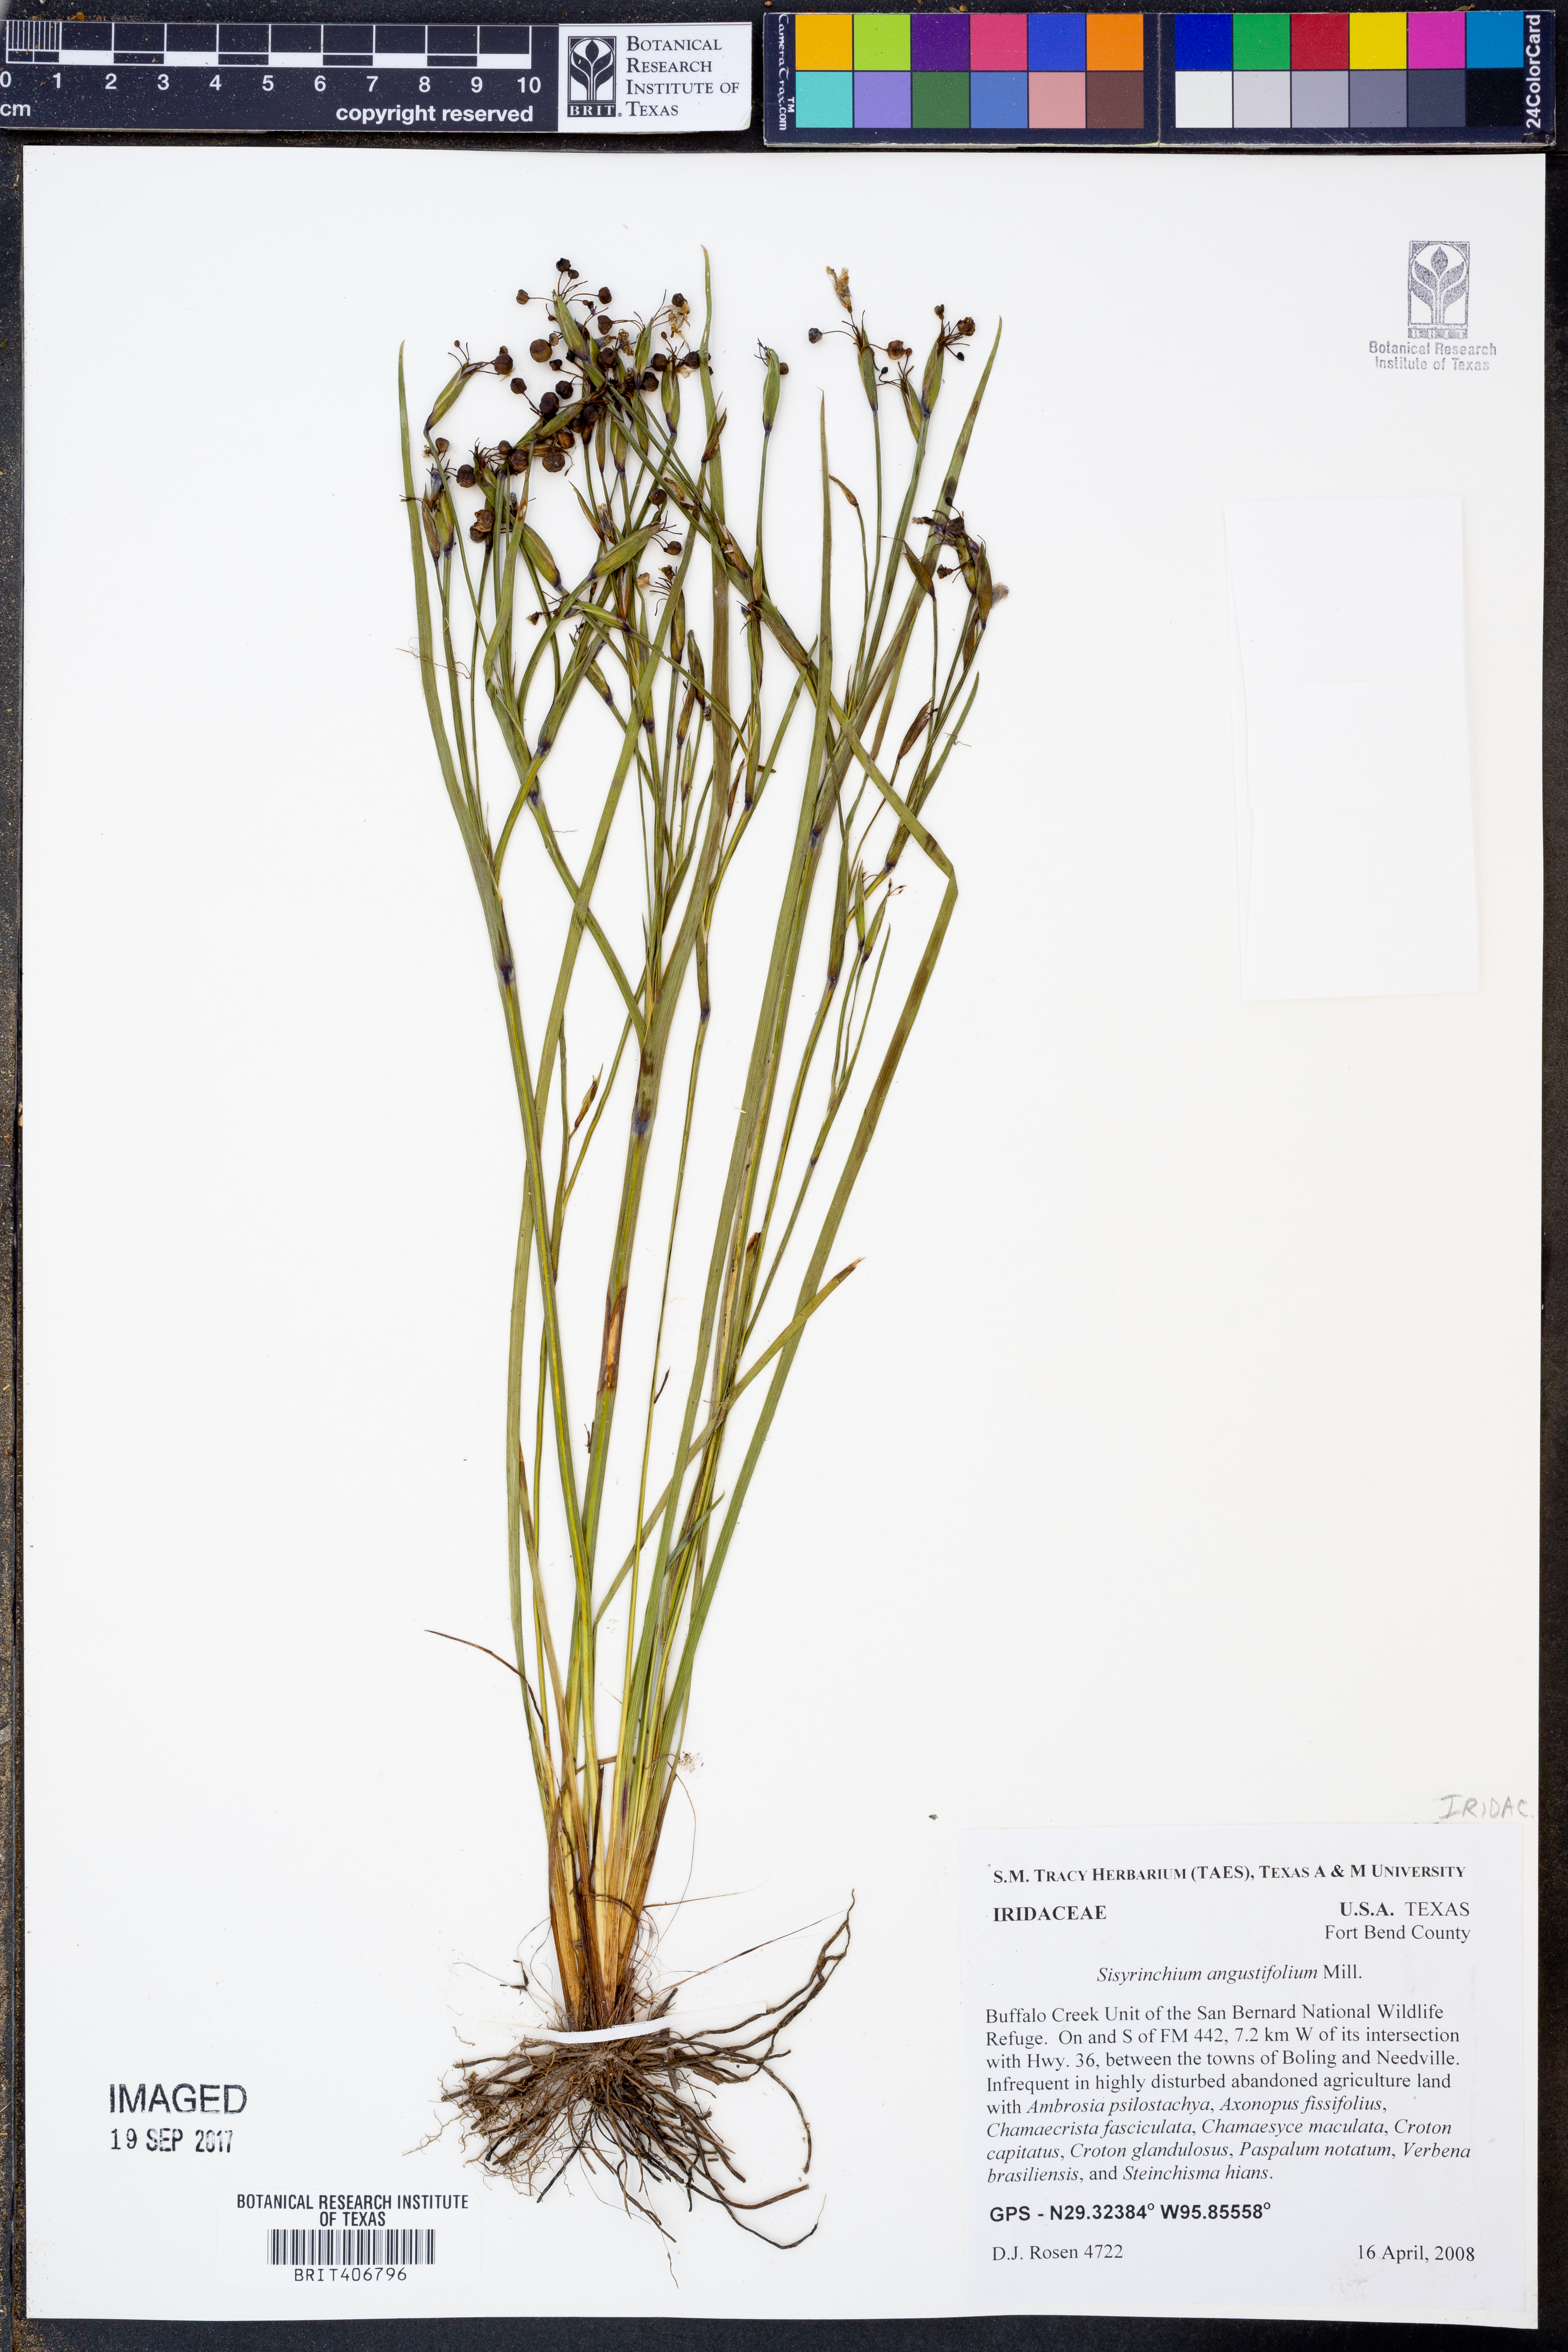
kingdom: Plantae
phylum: Tracheophyta
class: Liliopsida
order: Asparagales
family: Iridaceae
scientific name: Iridaceae
